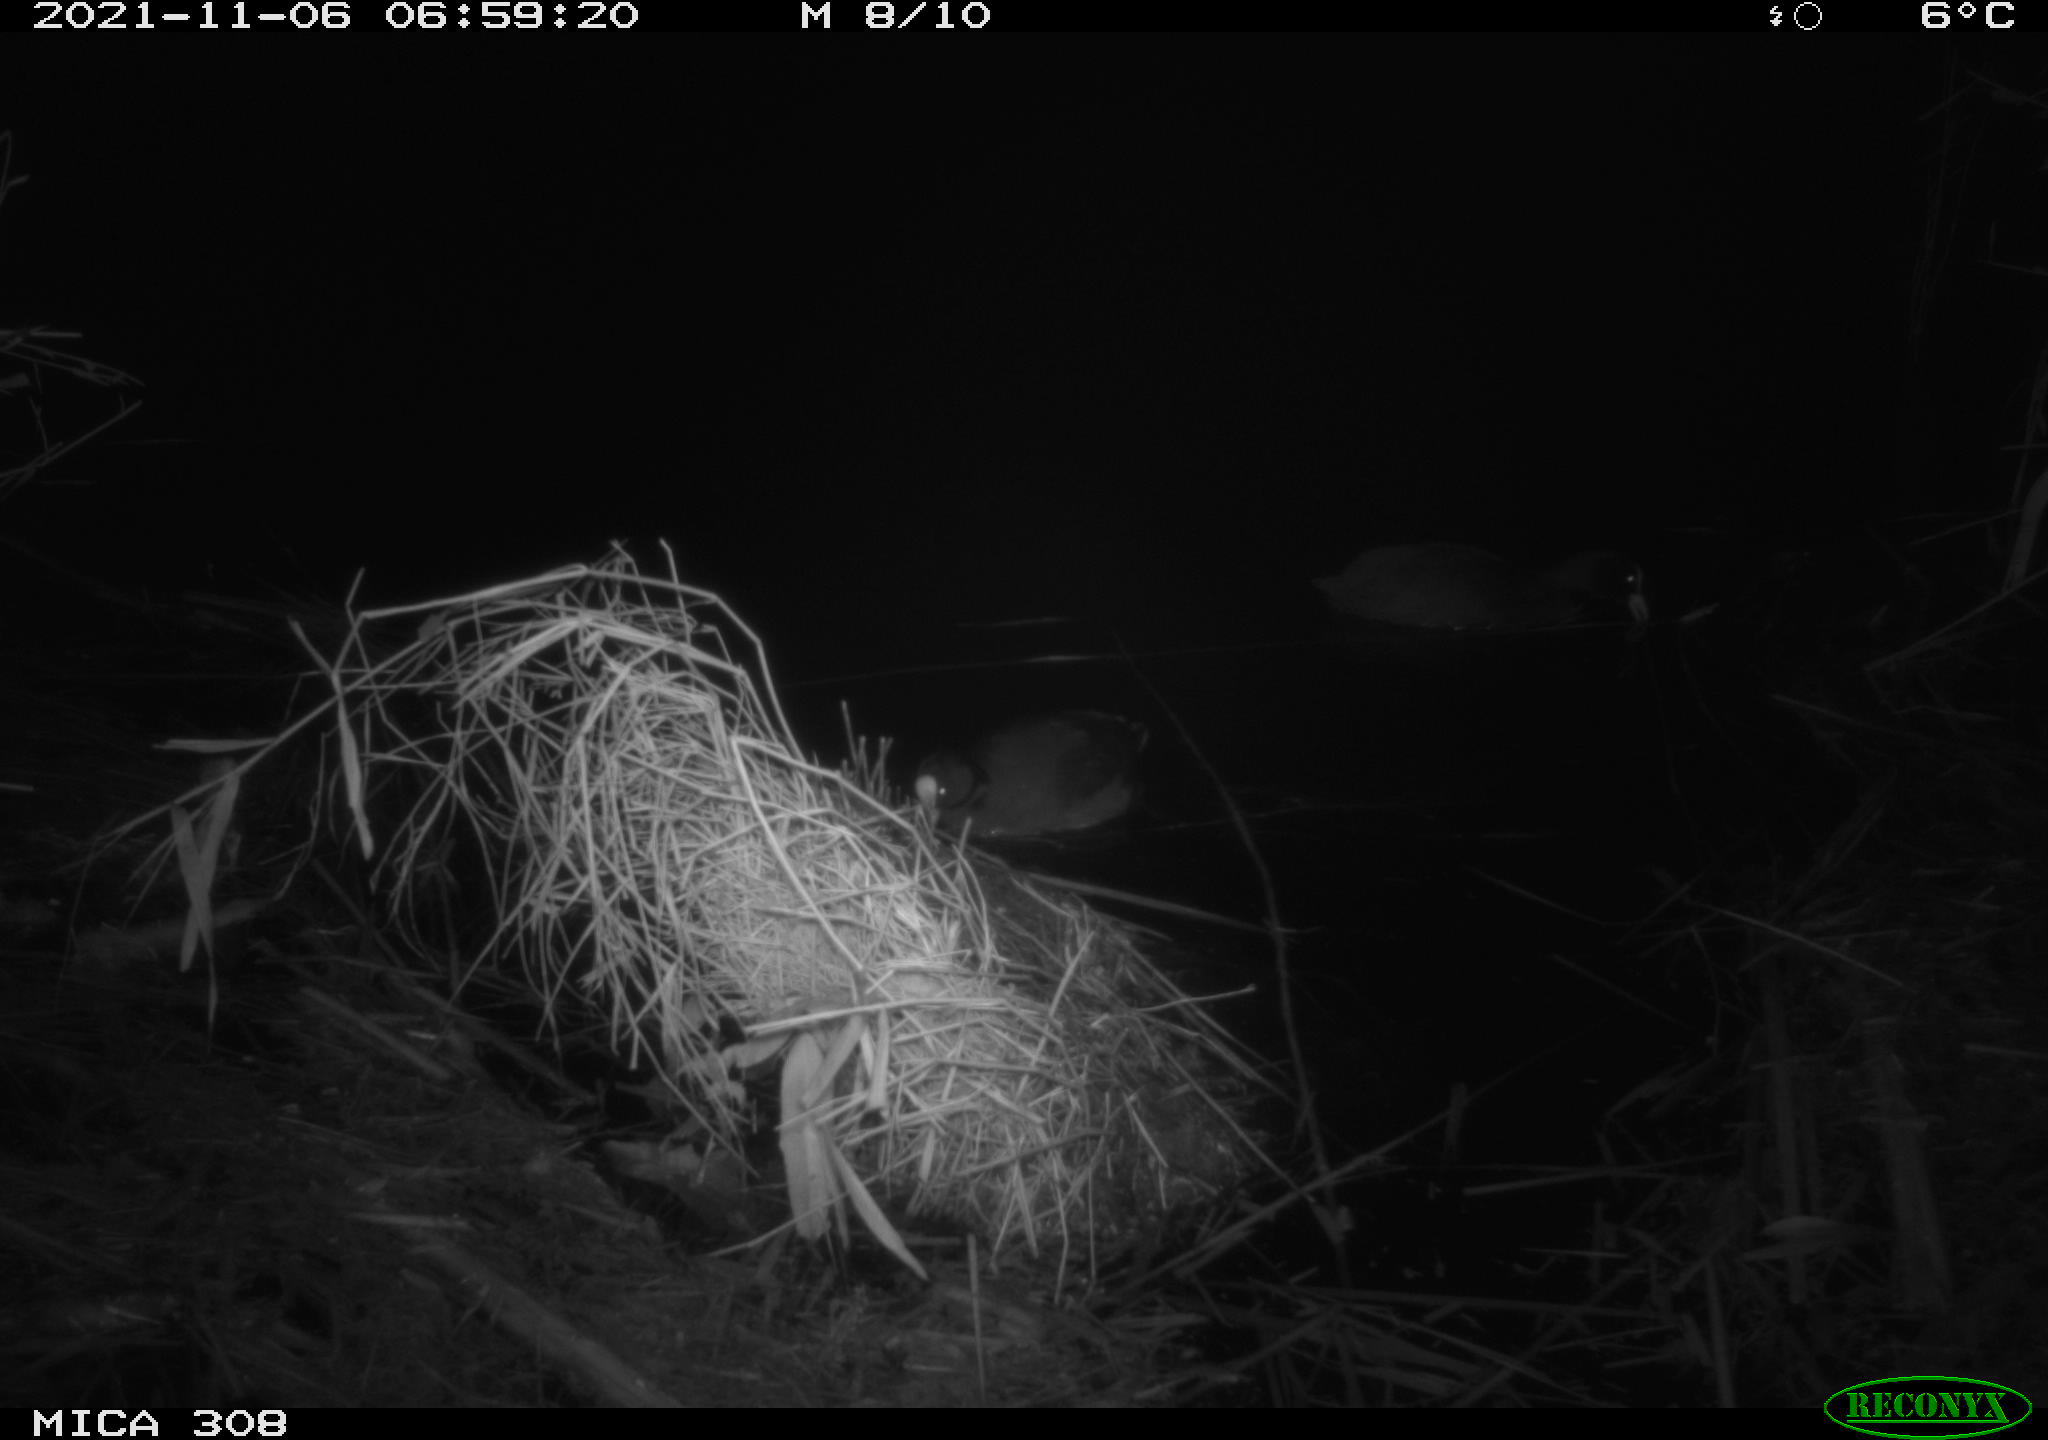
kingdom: Animalia
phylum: Chordata
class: Aves
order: Gruiformes
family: Rallidae
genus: Fulica
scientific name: Fulica atra
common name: Eurasian coot
